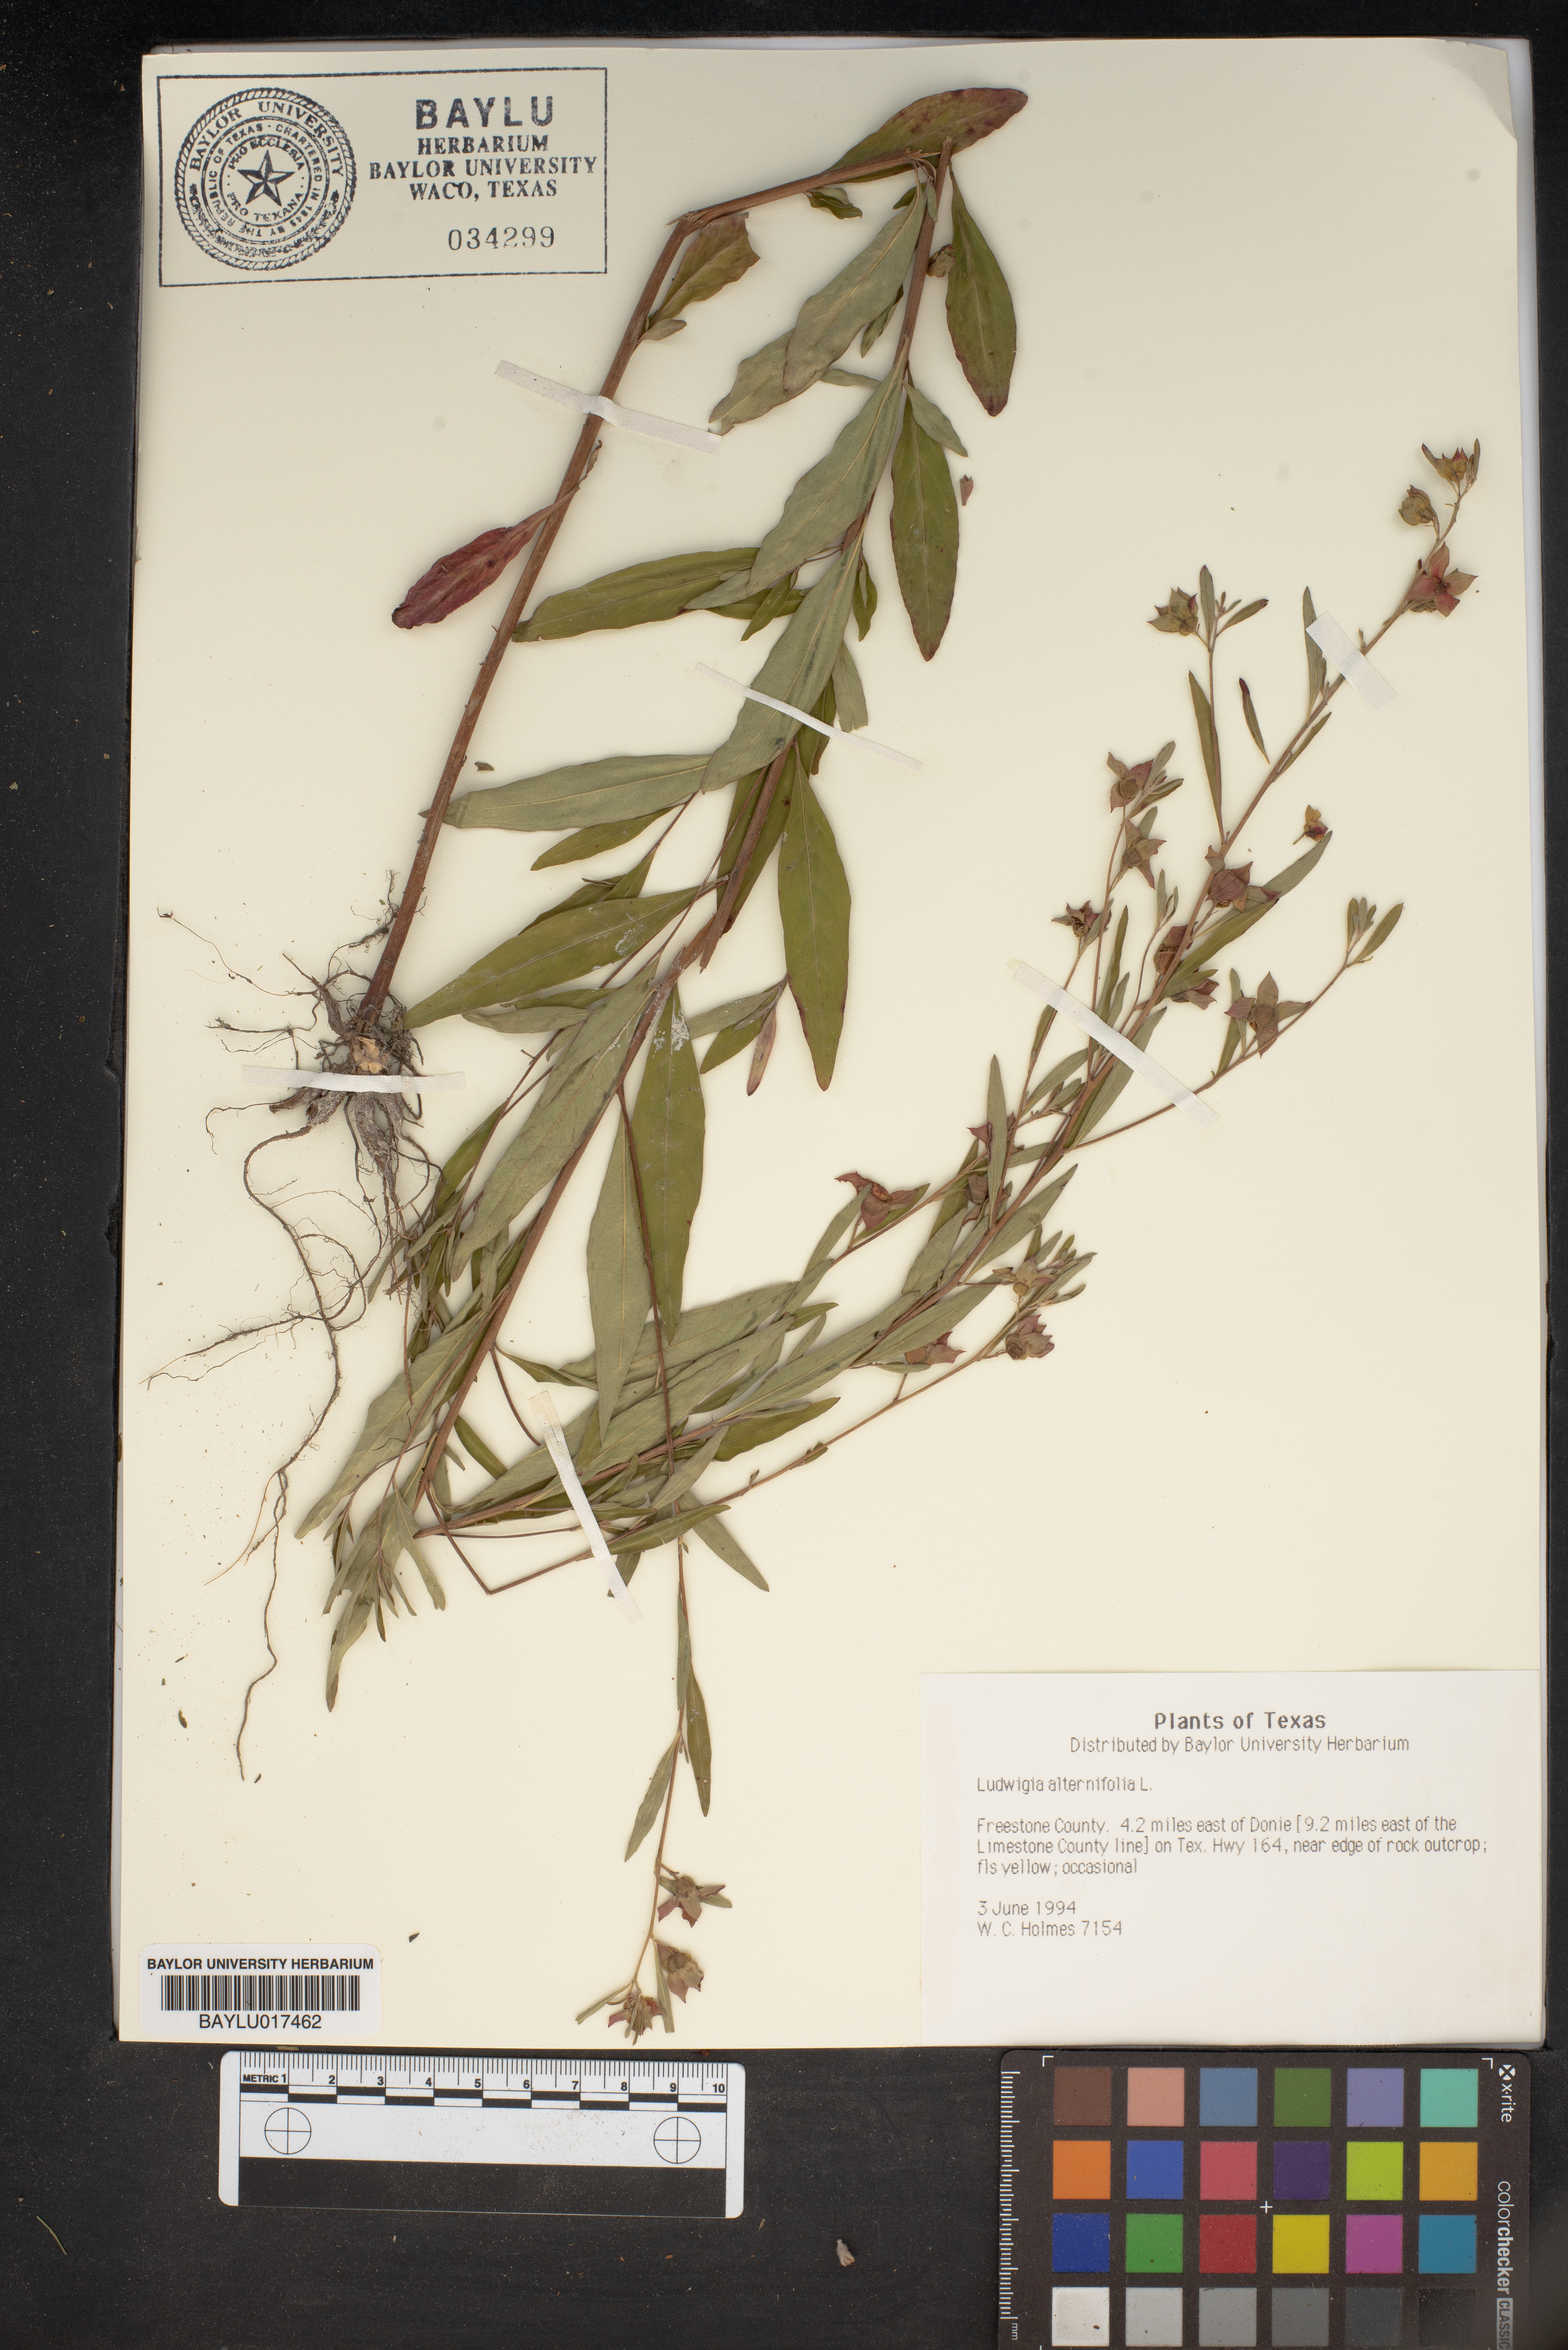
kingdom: Plantae
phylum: Tracheophyta
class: Magnoliopsida
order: Myrtales
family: Onagraceae
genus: Ludwigia
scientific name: Ludwigia alternifolia
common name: Rattlebox
